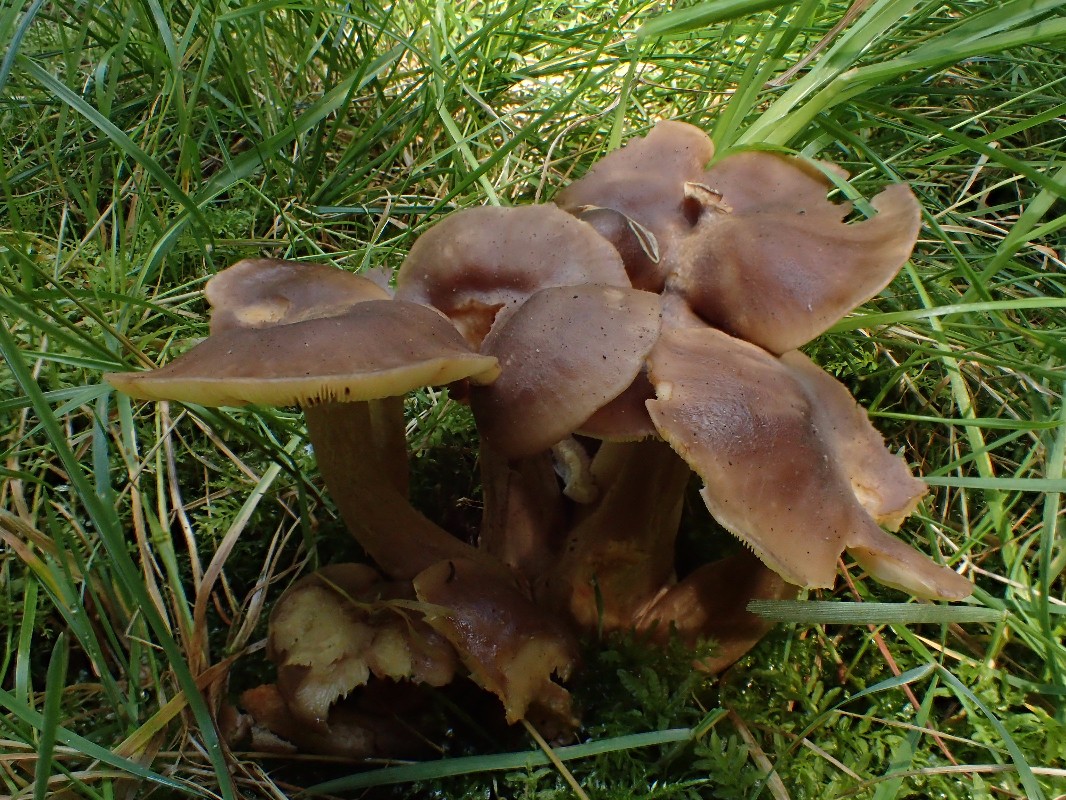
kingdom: Fungi
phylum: Basidiomycota
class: Agaricomycetes
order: Agaricales
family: Lyophyllaceae
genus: Lyophyllum
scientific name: Lyophyllum decastes
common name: Clustered domecap
